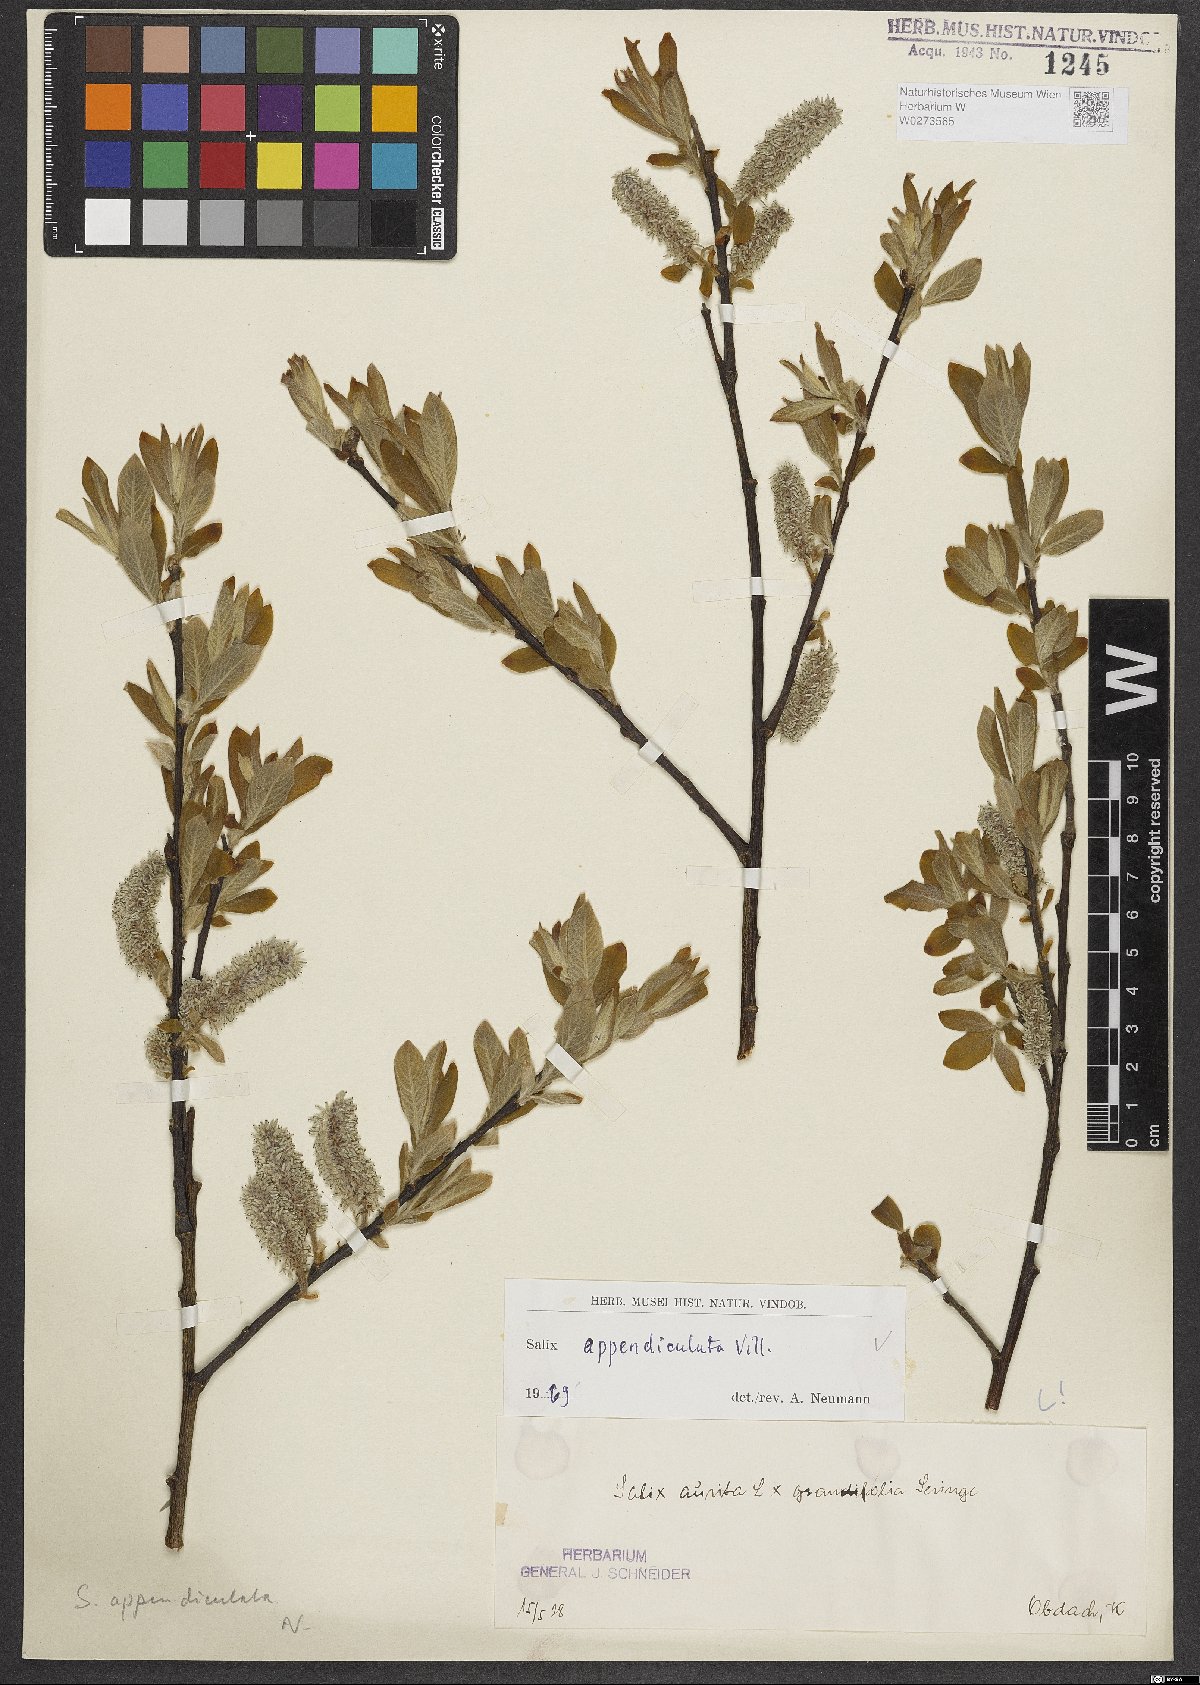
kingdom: Plantae
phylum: Tracheophyta
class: Magnoliopsida
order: Malpighiales
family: Salicaceae
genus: Salix
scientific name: Salix appendiculata
